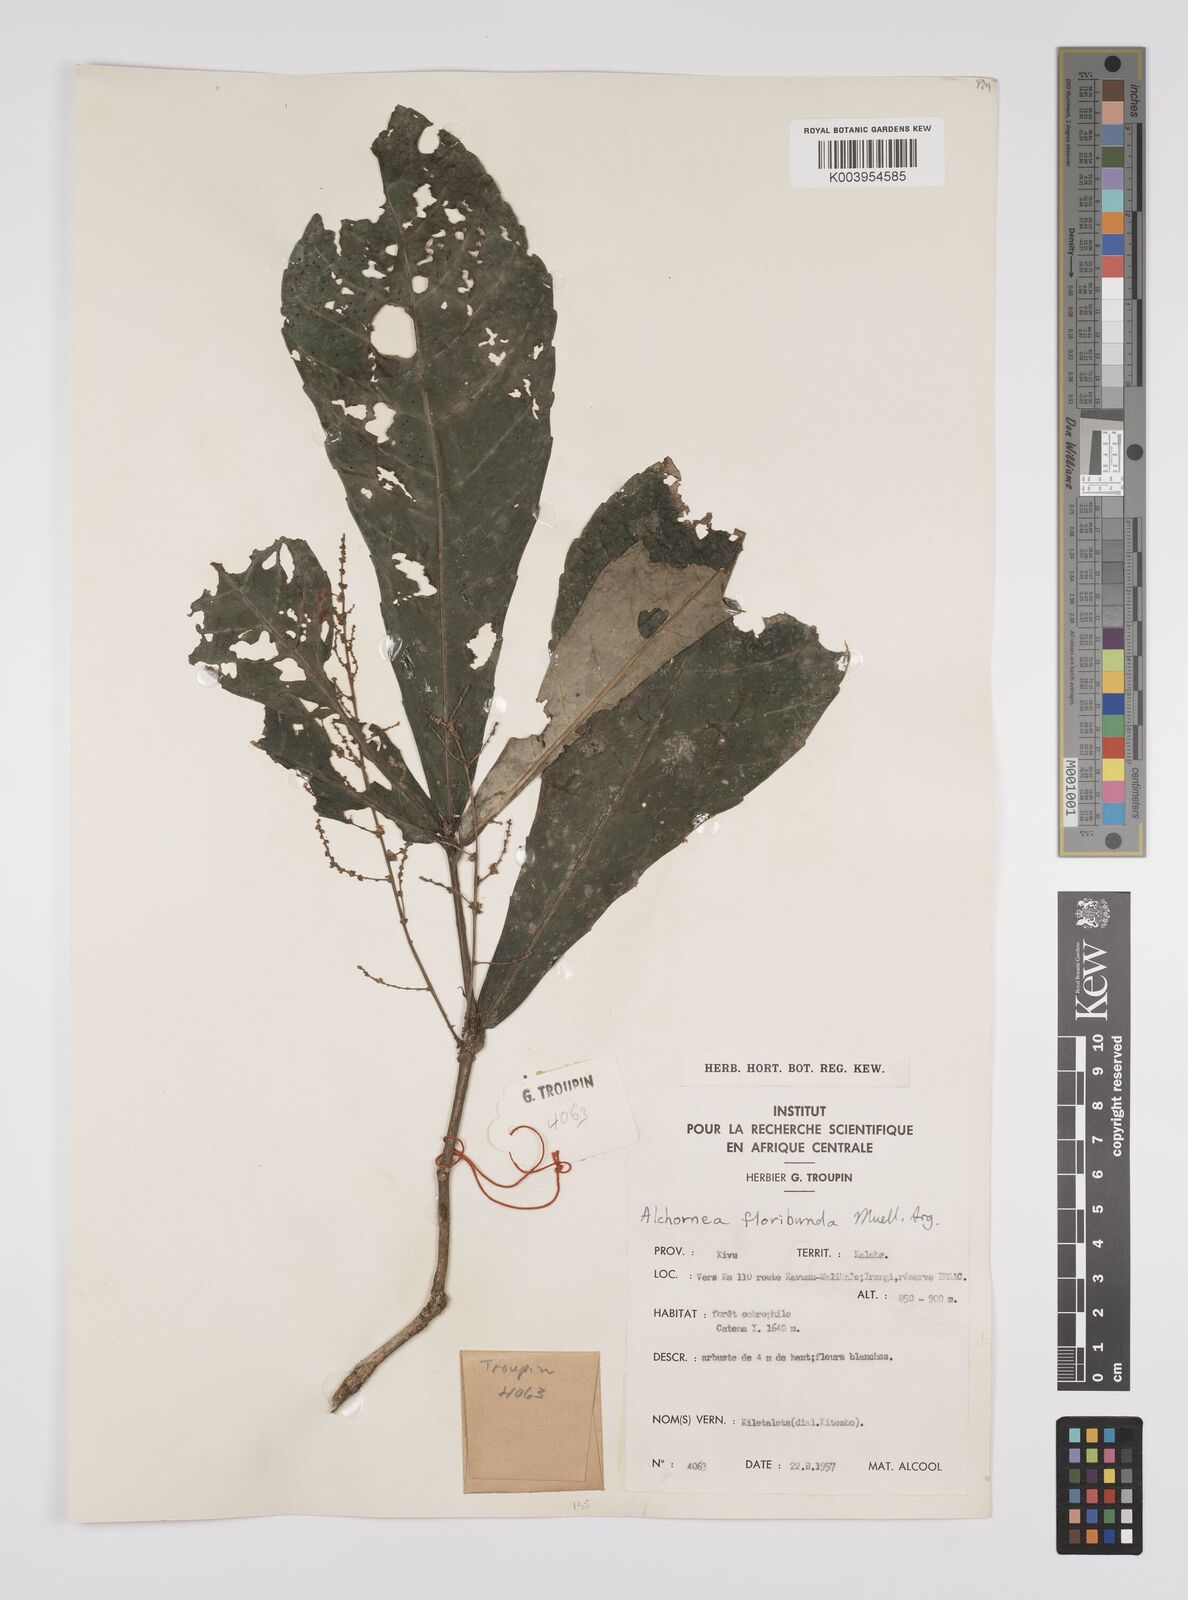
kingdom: Plantae
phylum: Tracheophyta
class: Magnoliopsida
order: Malpighiales
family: Euphorbiaceae
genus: Alchornea
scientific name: Alchornea floribunda
